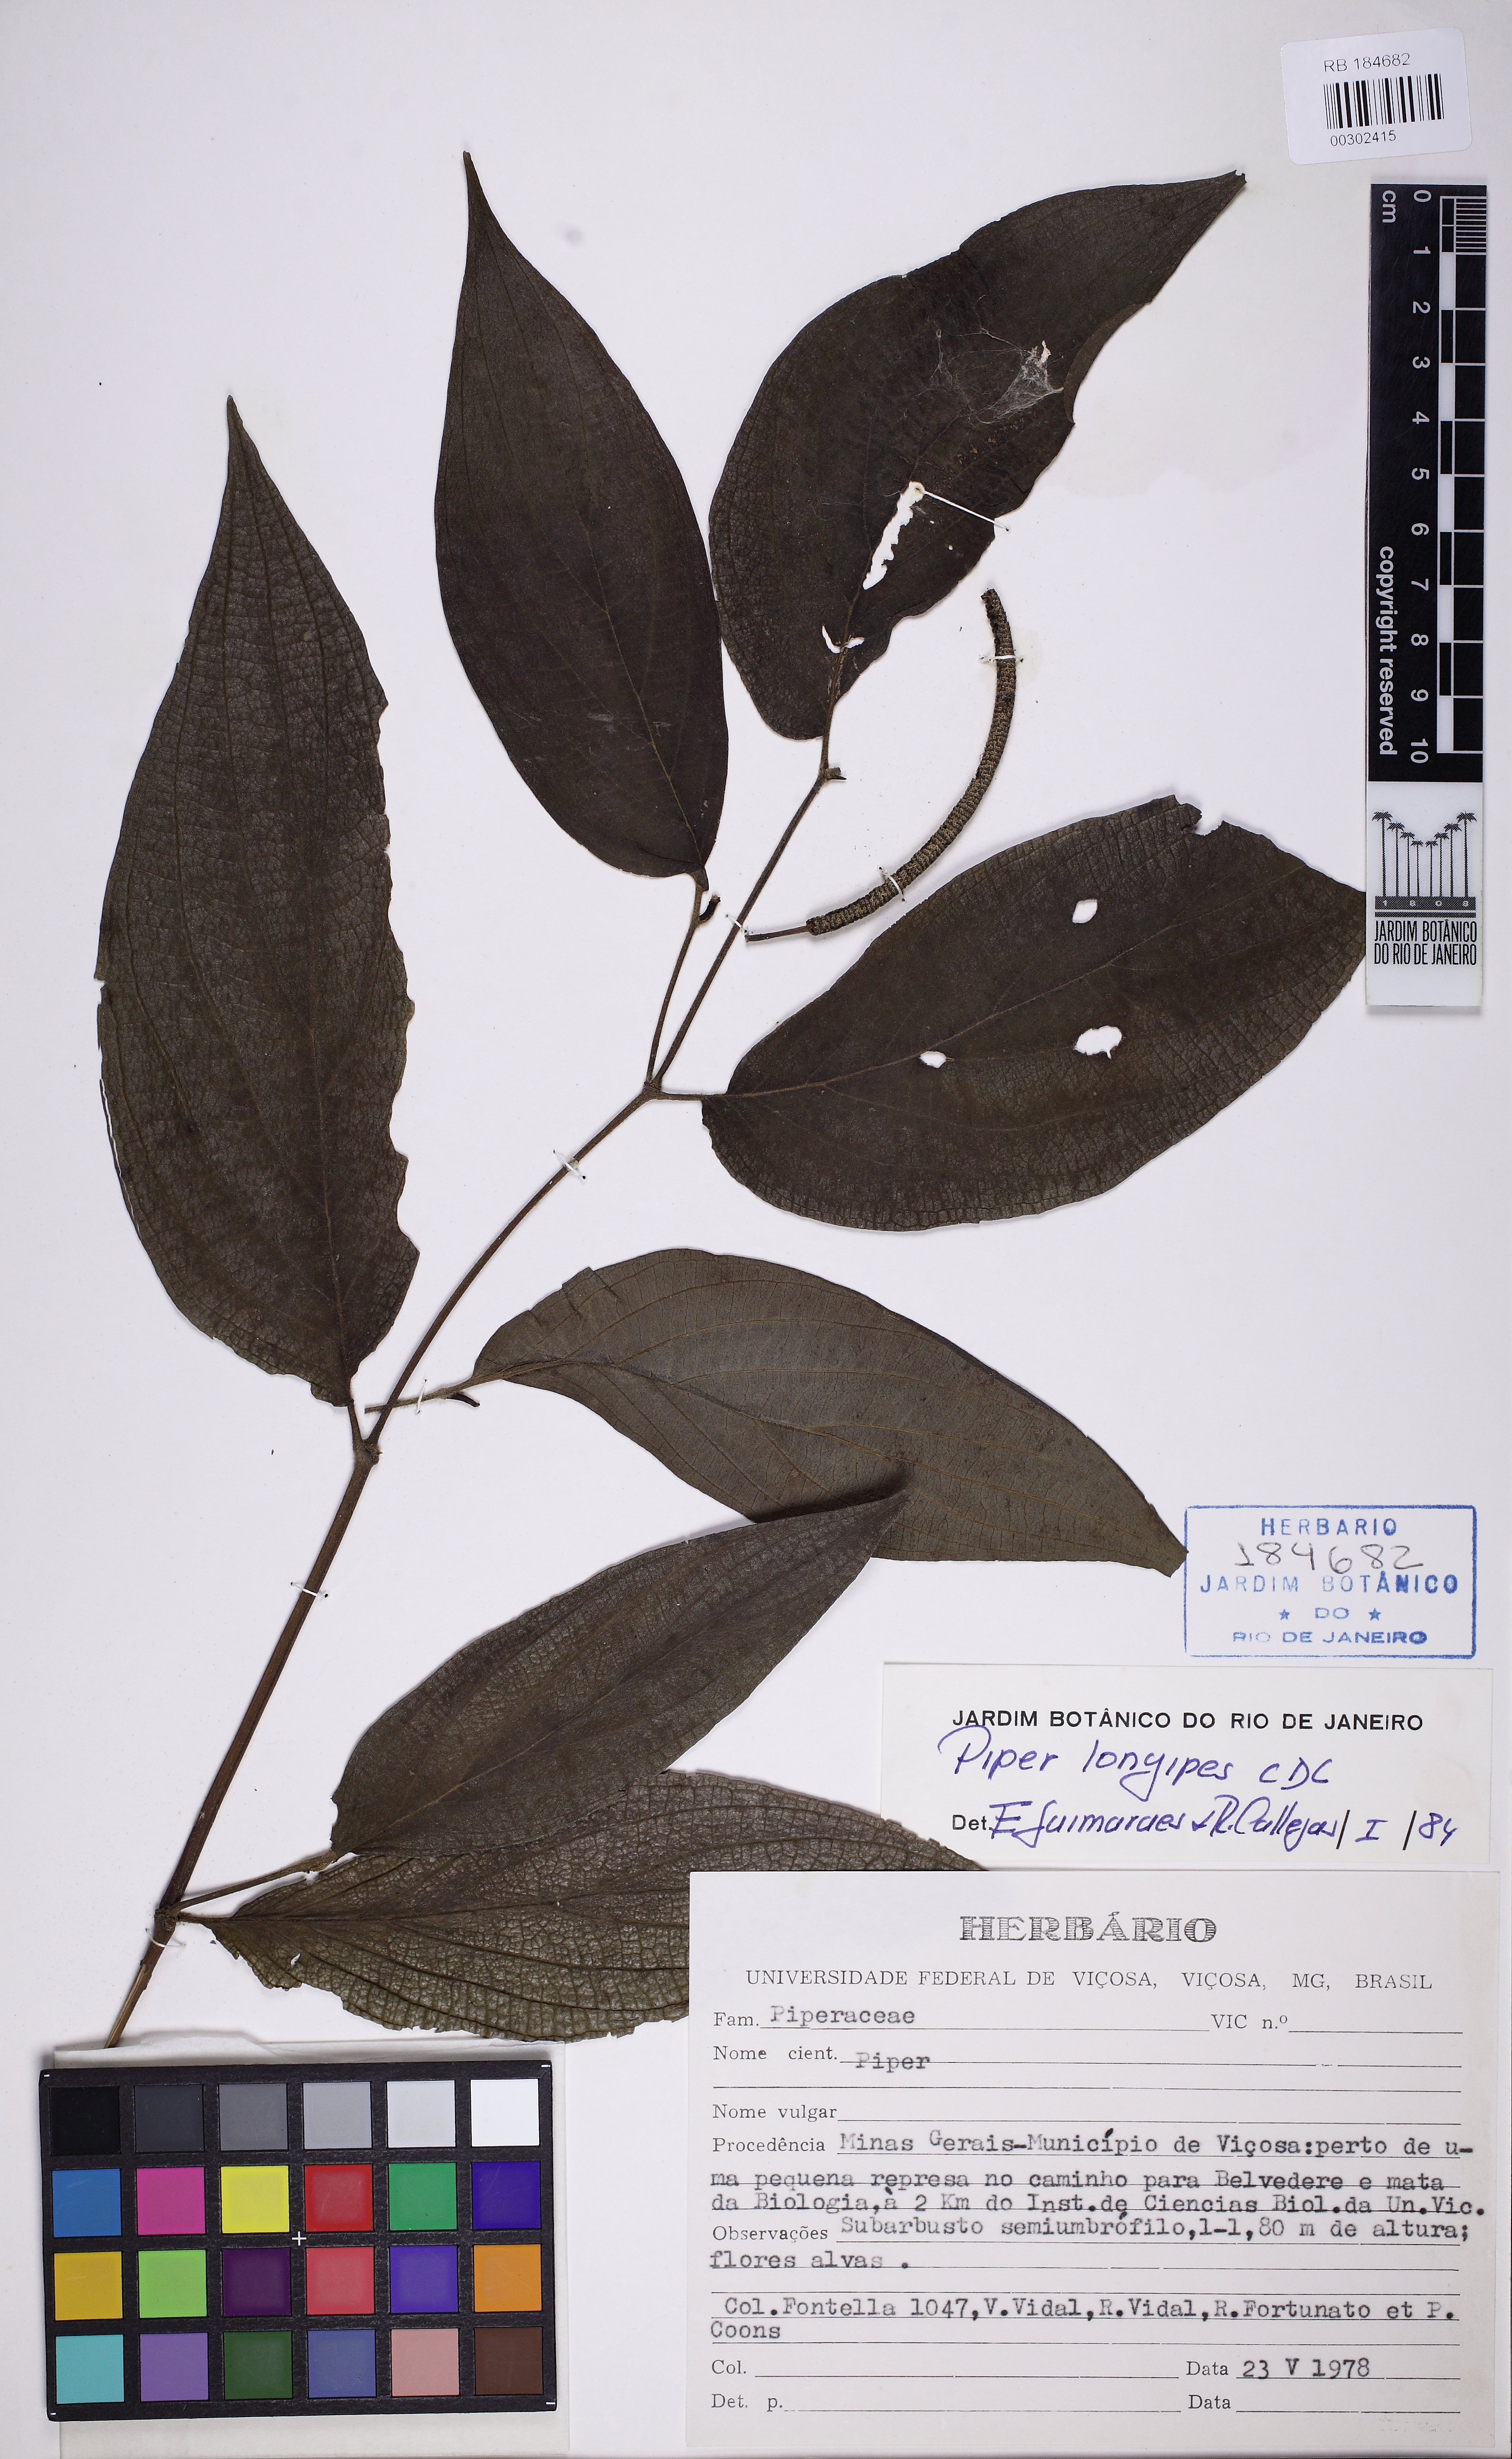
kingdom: Plantae
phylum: Tracheophyta
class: Magnoliopsida
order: Piperales
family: Piperaceae
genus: Piper
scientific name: Piper longipes
